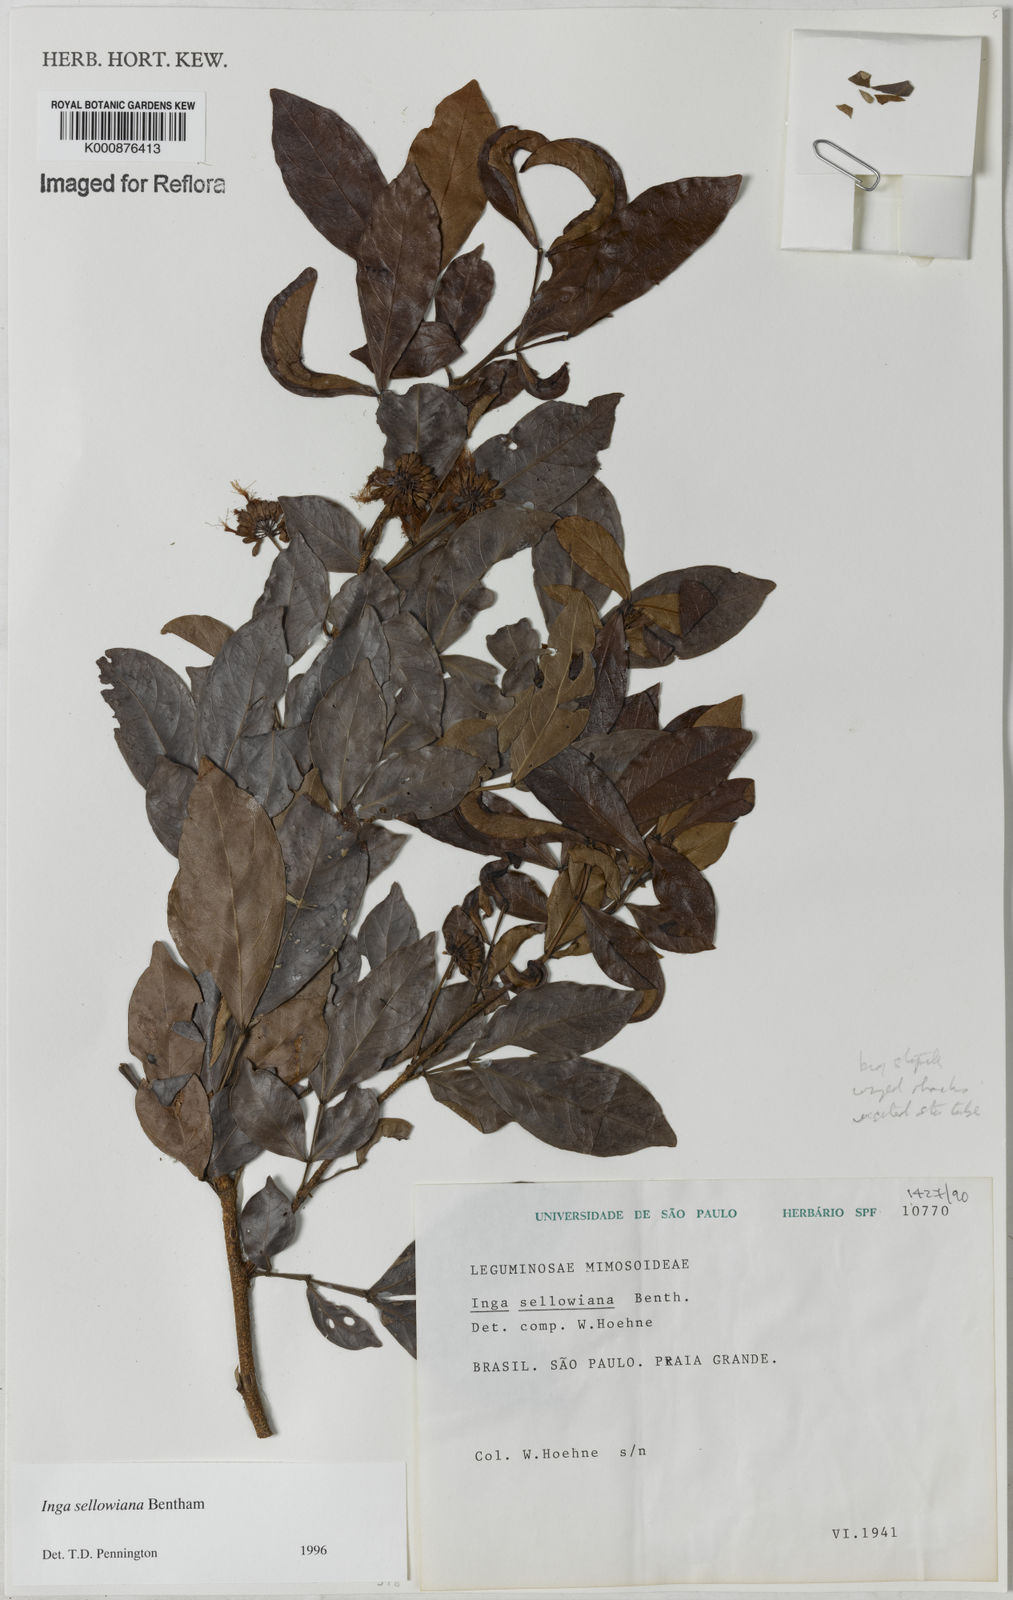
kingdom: Plantae
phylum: Tracheophyta
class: Magnoliopsida
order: Fabales
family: Fabaceae
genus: Inga
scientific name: Inga sellowiana
